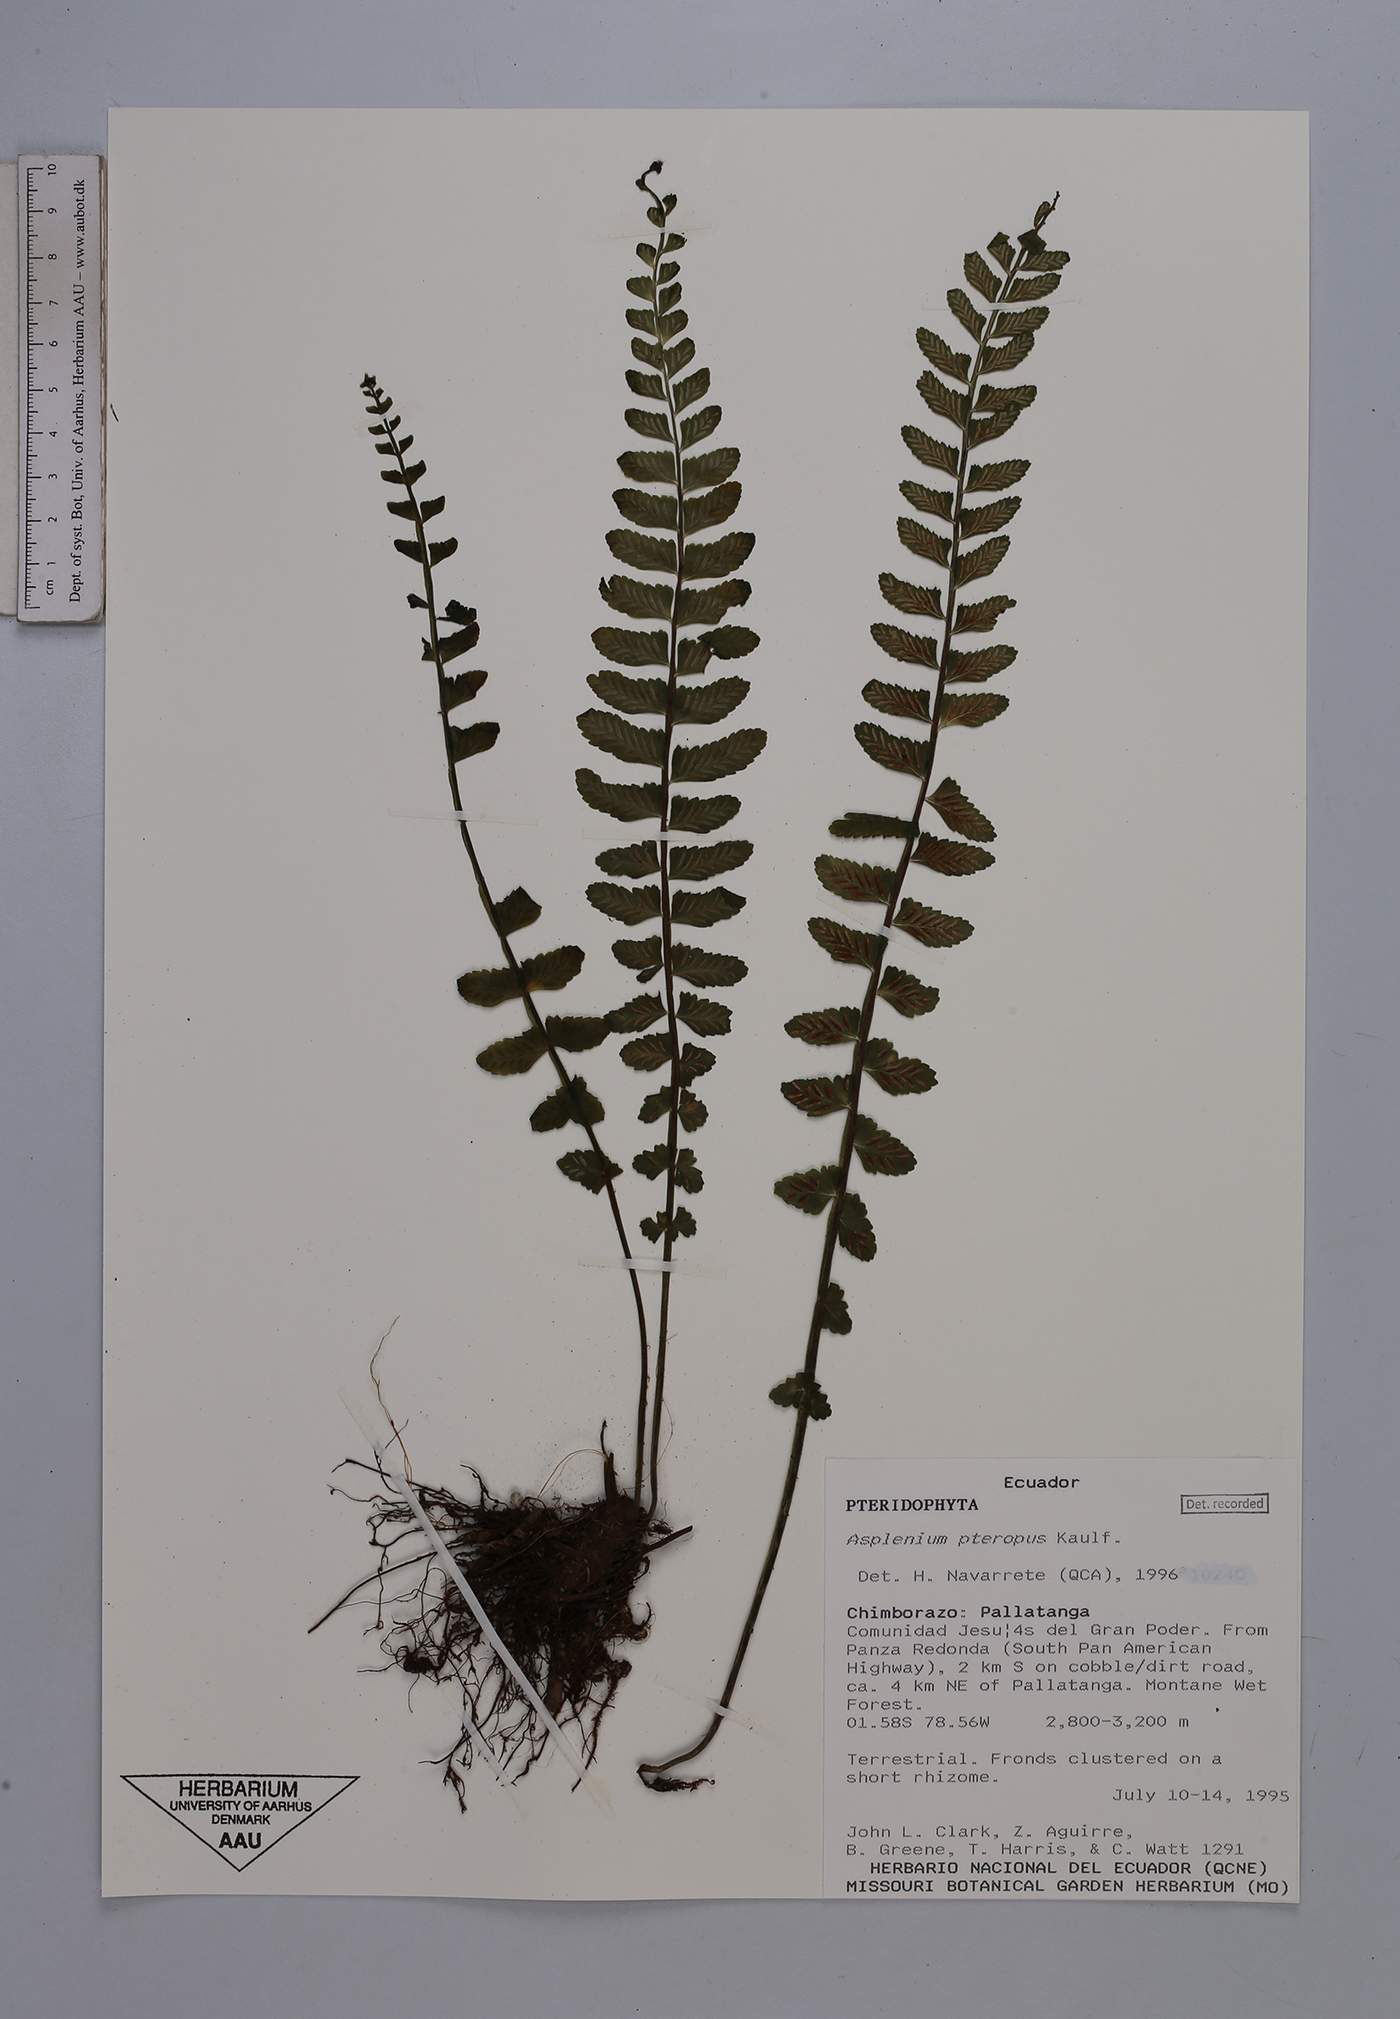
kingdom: Plantae
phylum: Tracheophyta
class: Polypodiopsida
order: Polypodiales
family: Aspleniaceae
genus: Asplenium
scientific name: Asplenium pteropus
